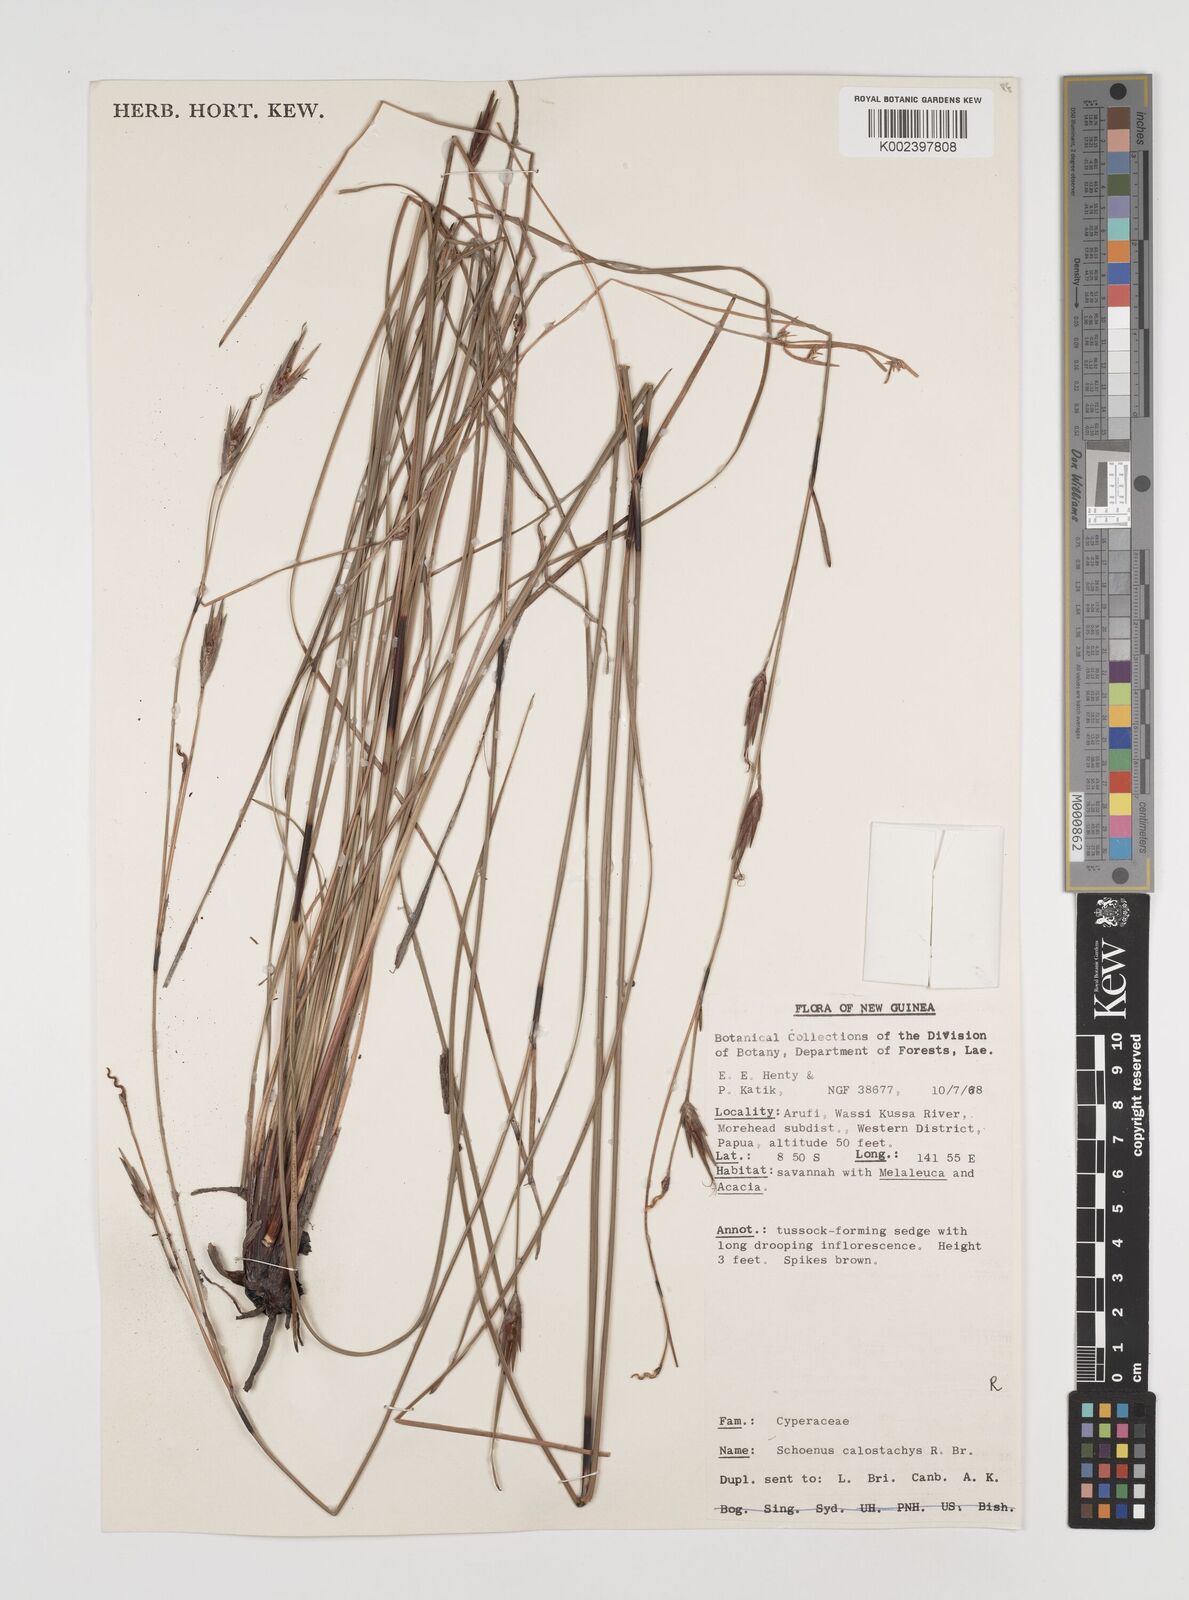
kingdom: Plantae
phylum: Tracheophyta
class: Liliopsida
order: Poales
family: Cyperaceae
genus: Schoenus
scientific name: Schoenus calostachyus
